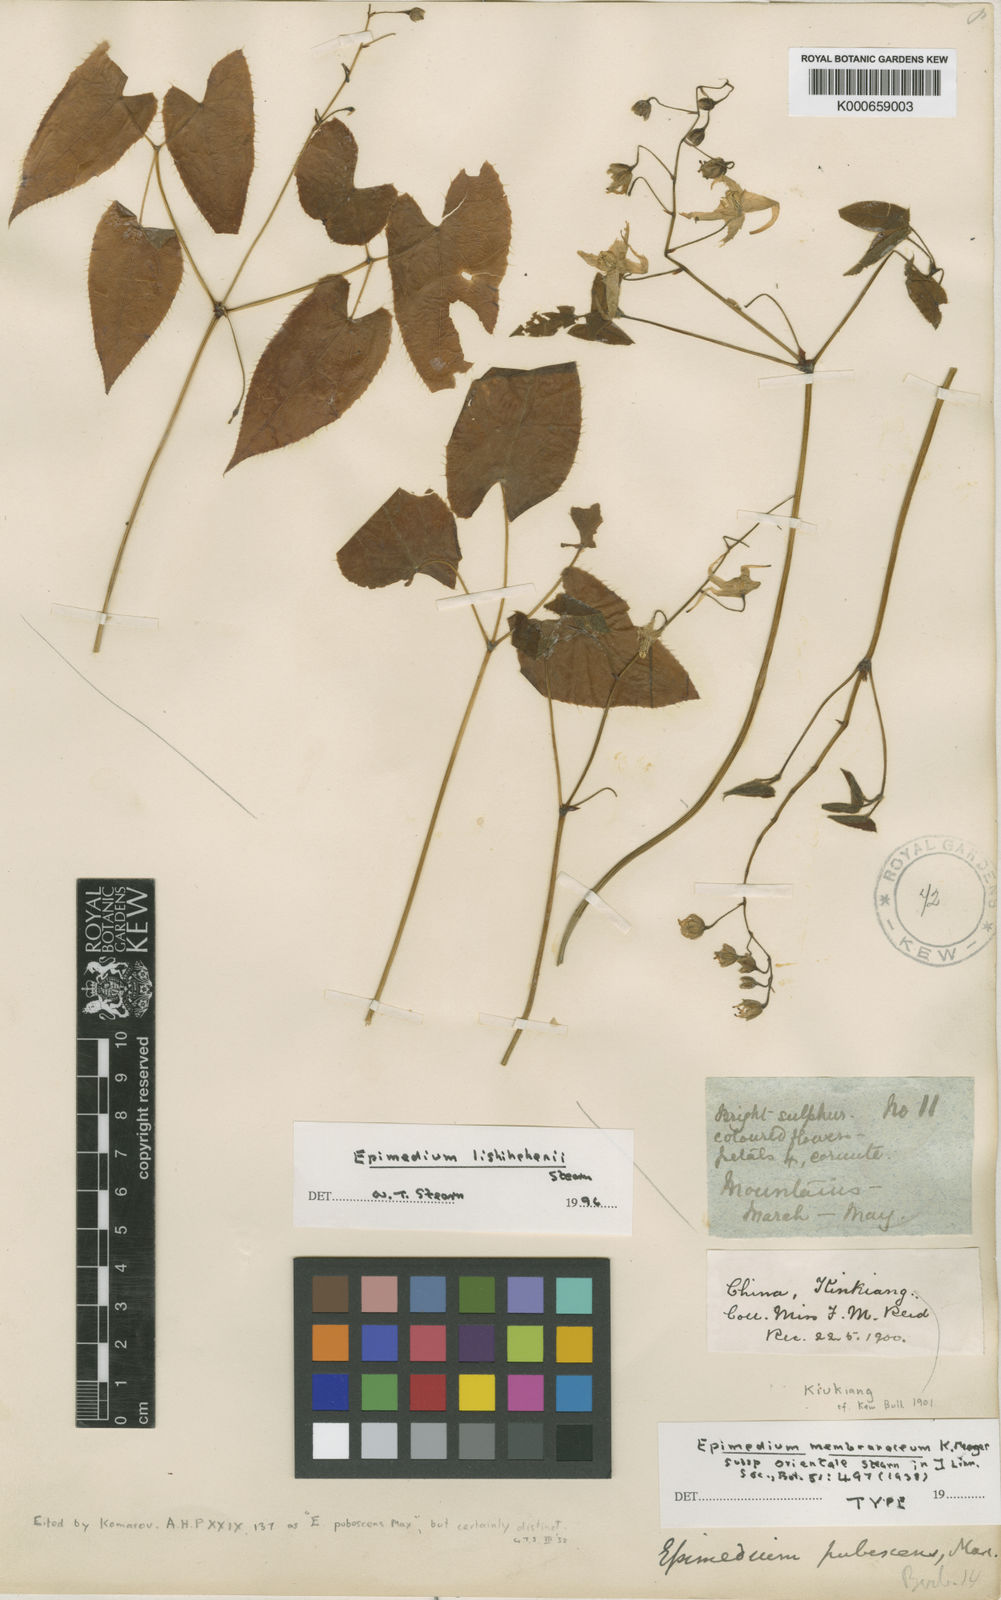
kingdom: Plantae
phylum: Tracheophyta
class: Magnoliopsida
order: Ranunculales
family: Berberidaceae
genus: Epimedium
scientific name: Epimedium lishihchenii
